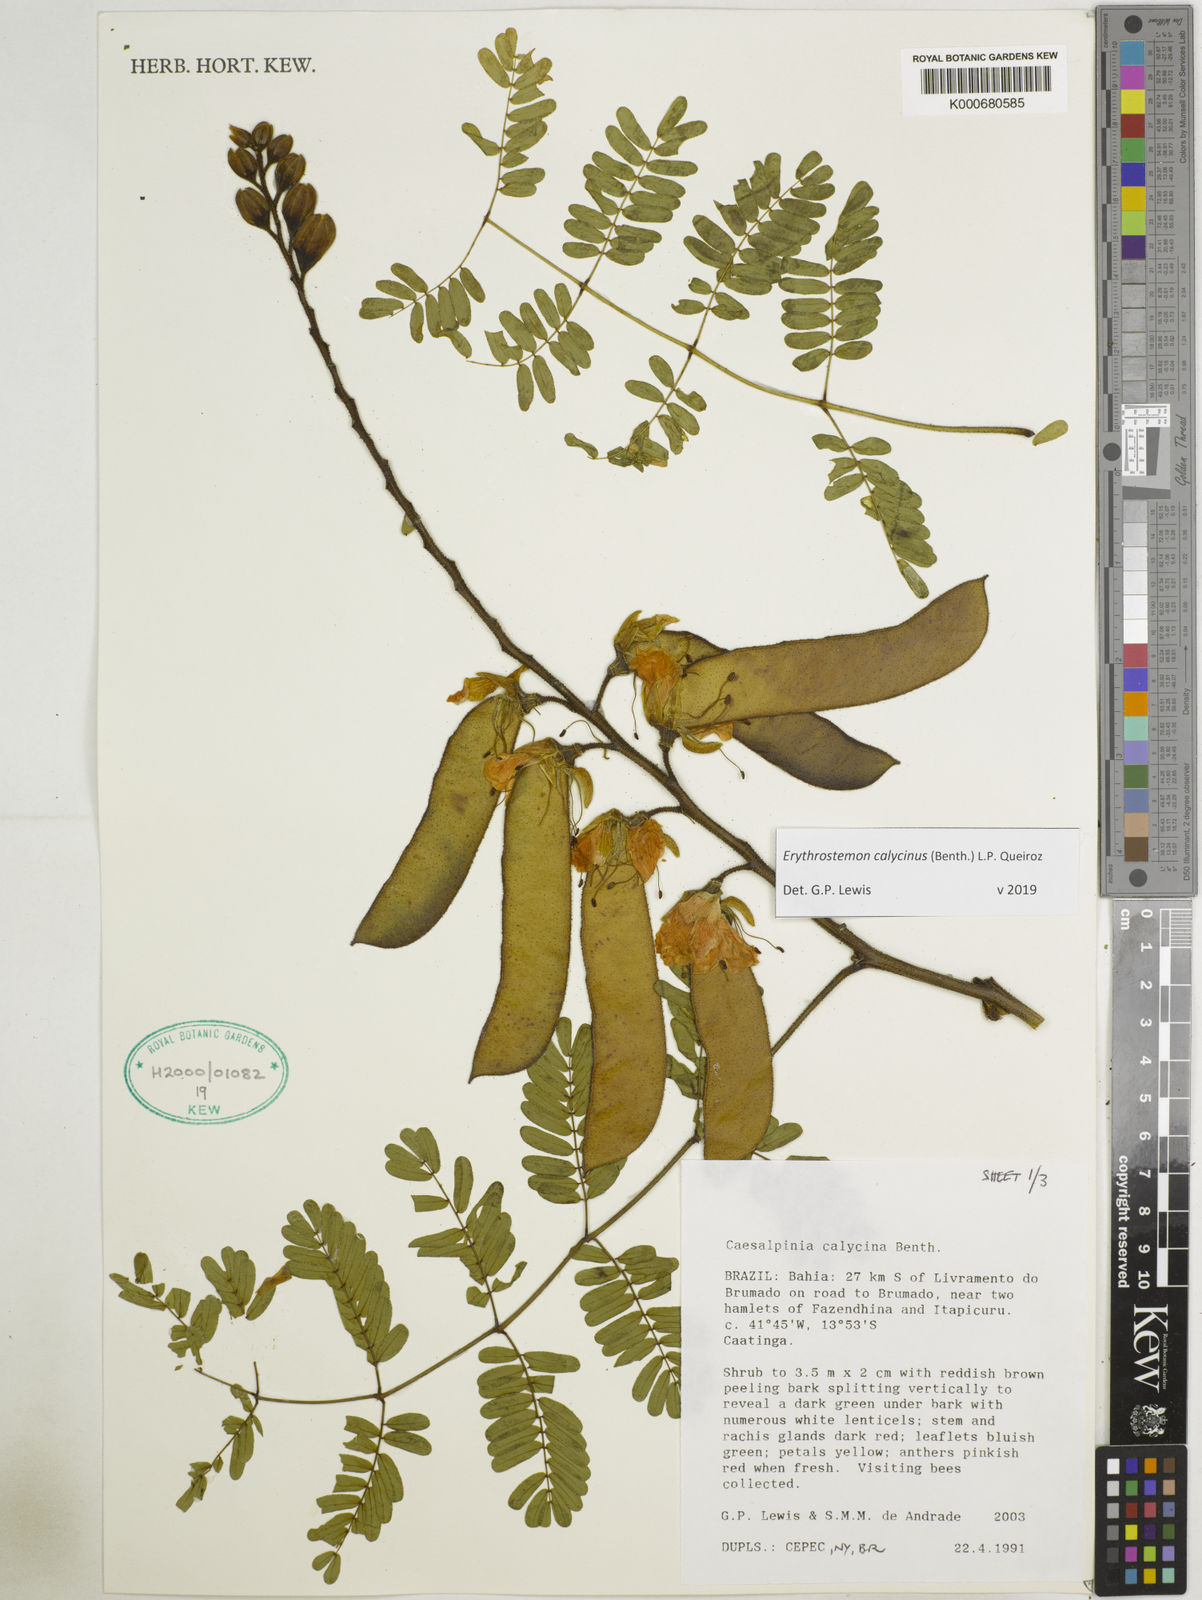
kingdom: Plantae
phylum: Tracheophyta
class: Magnoliopsida
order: Fabales
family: Fabaceae
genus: Erythrostemon
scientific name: Erythrostemon calycinus
